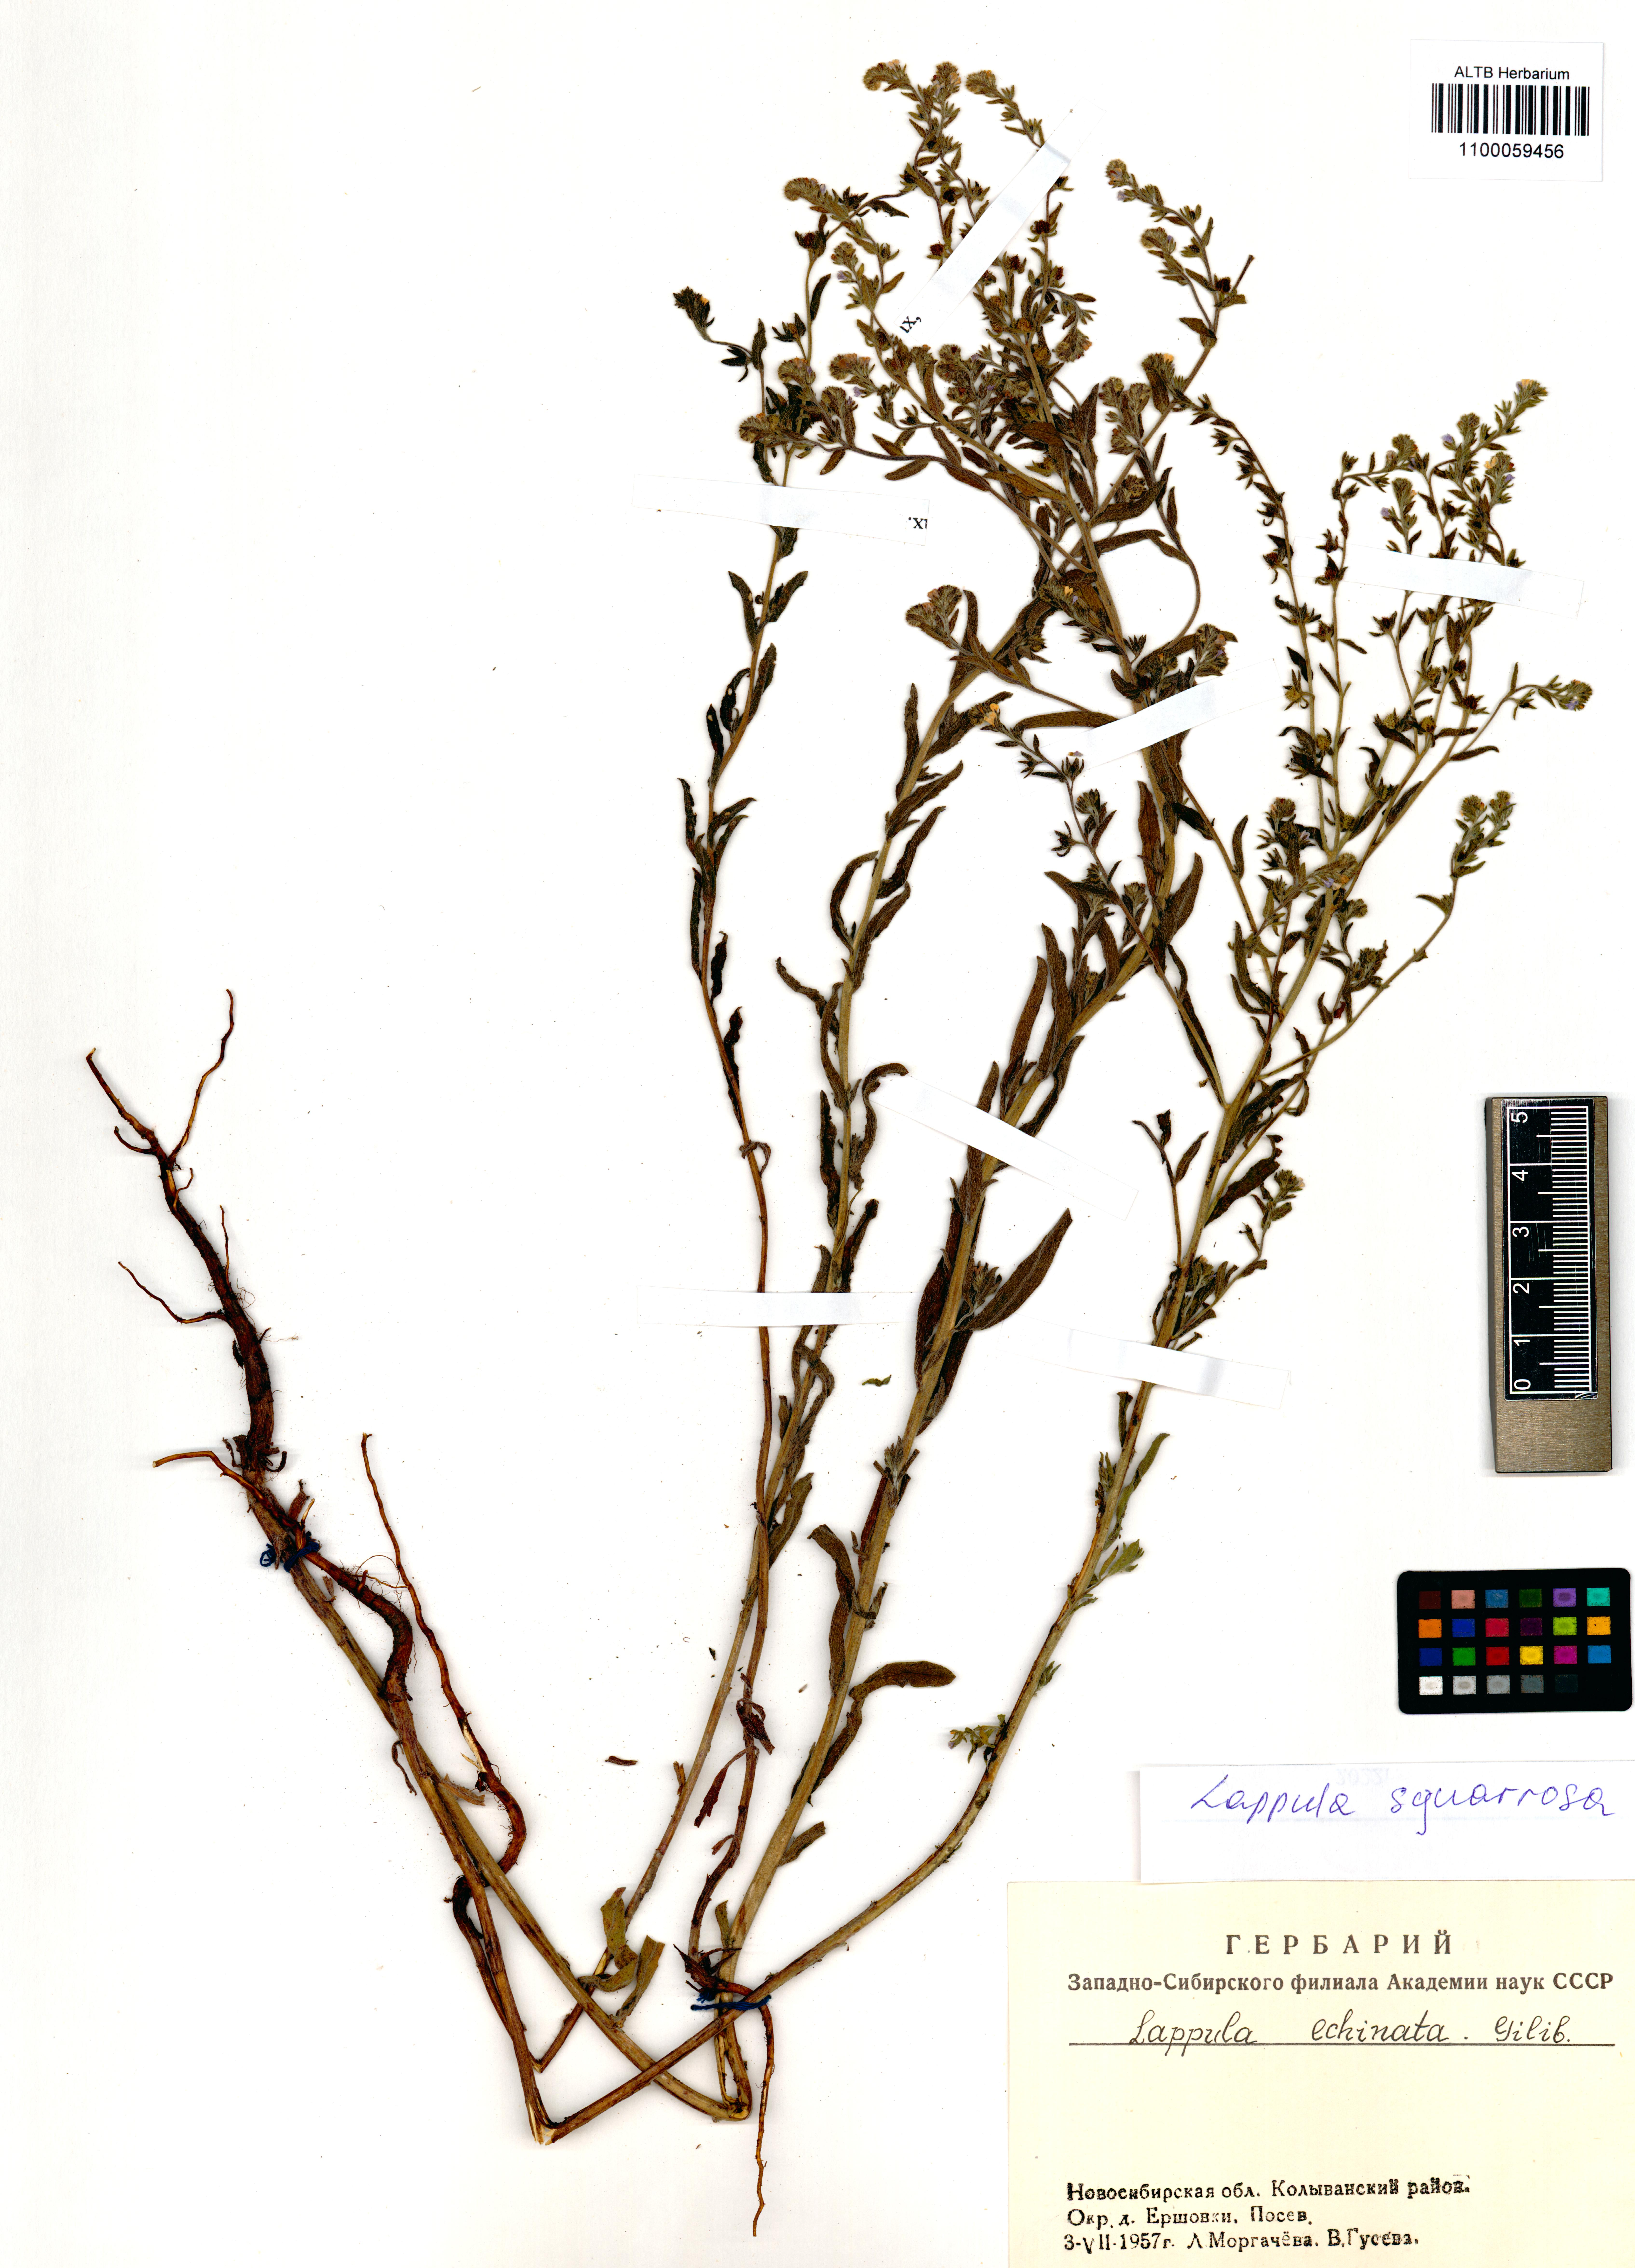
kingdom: Plantae
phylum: Tracheophyta
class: Magnoliopsida
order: Boraginales
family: Boraginaceae
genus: Lappula
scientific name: Lappula squarrosa
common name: European stickseed
